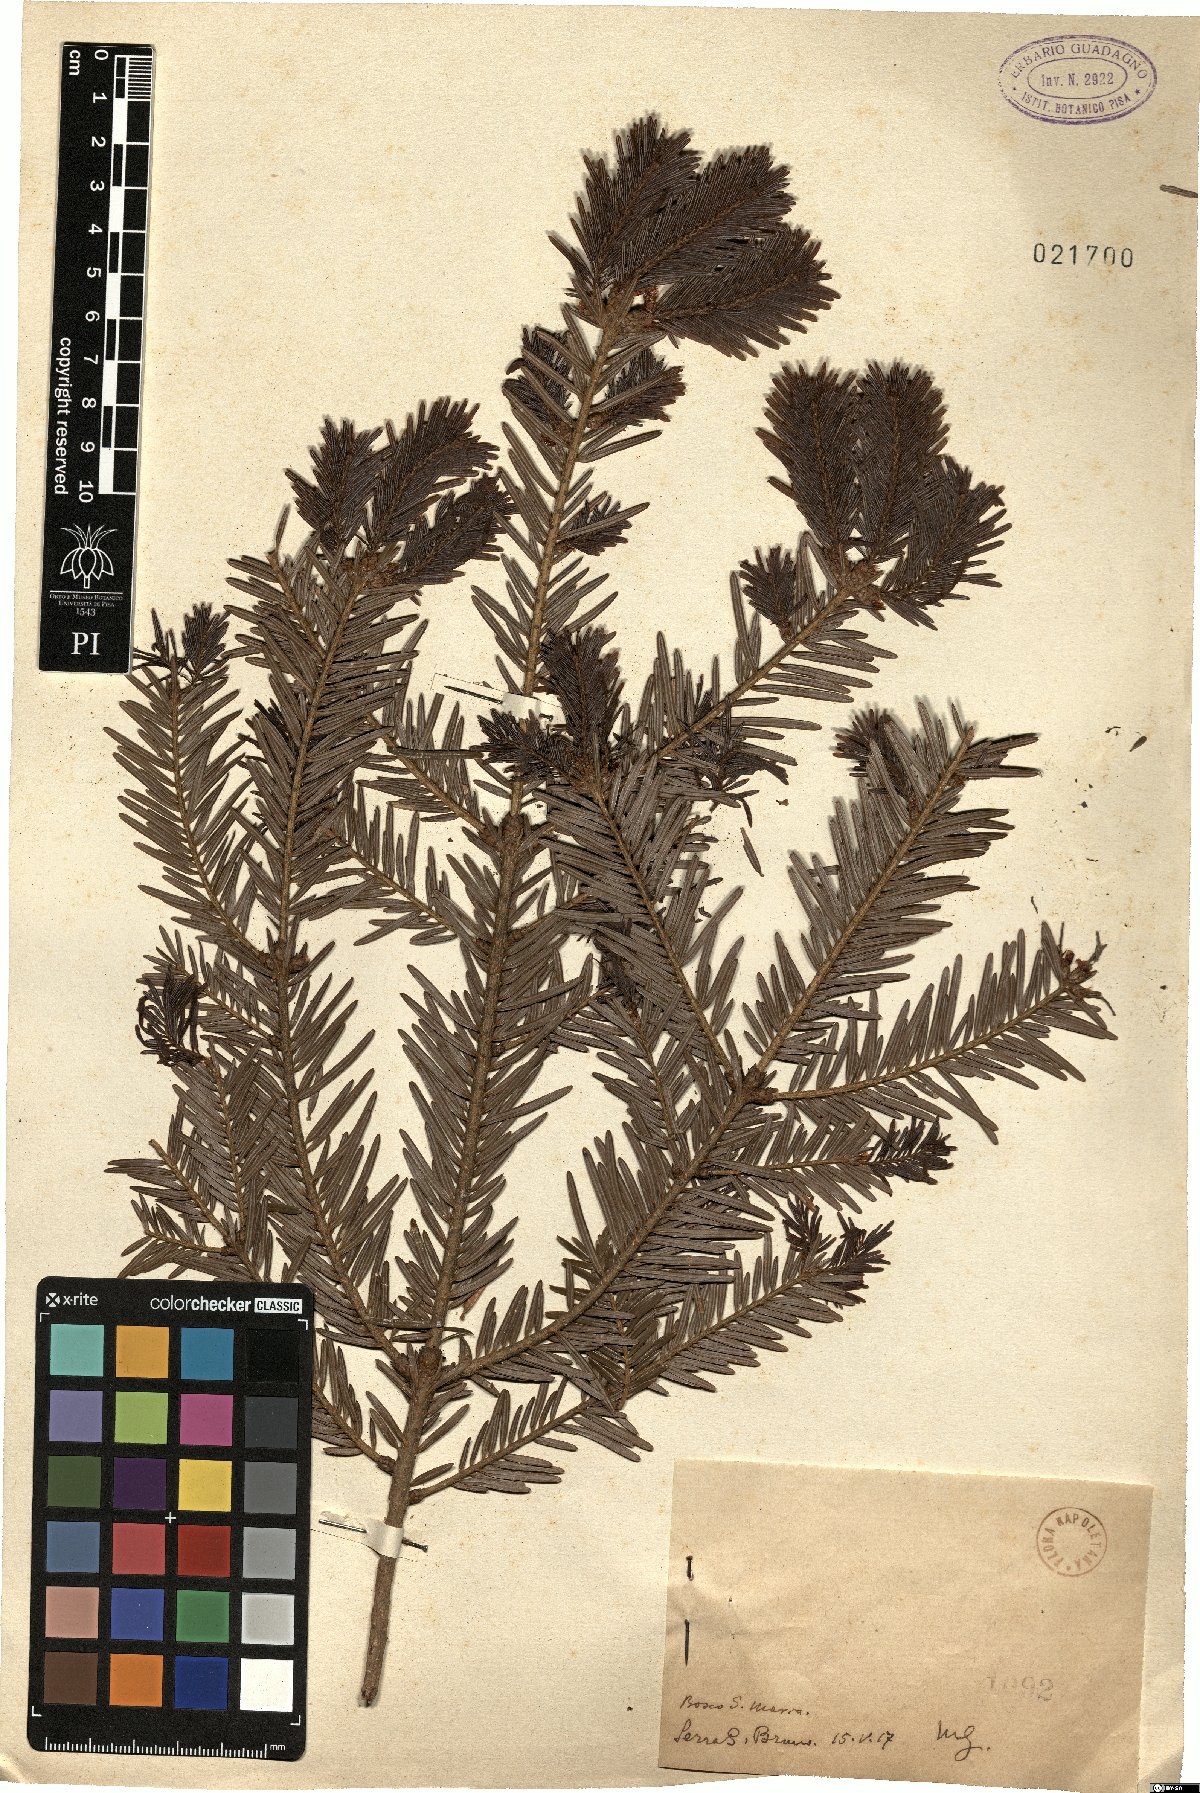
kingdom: Plantae
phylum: Tracheophyta
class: Pinopsida
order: Pinales
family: Pinaceae
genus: Abies
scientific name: Abies
